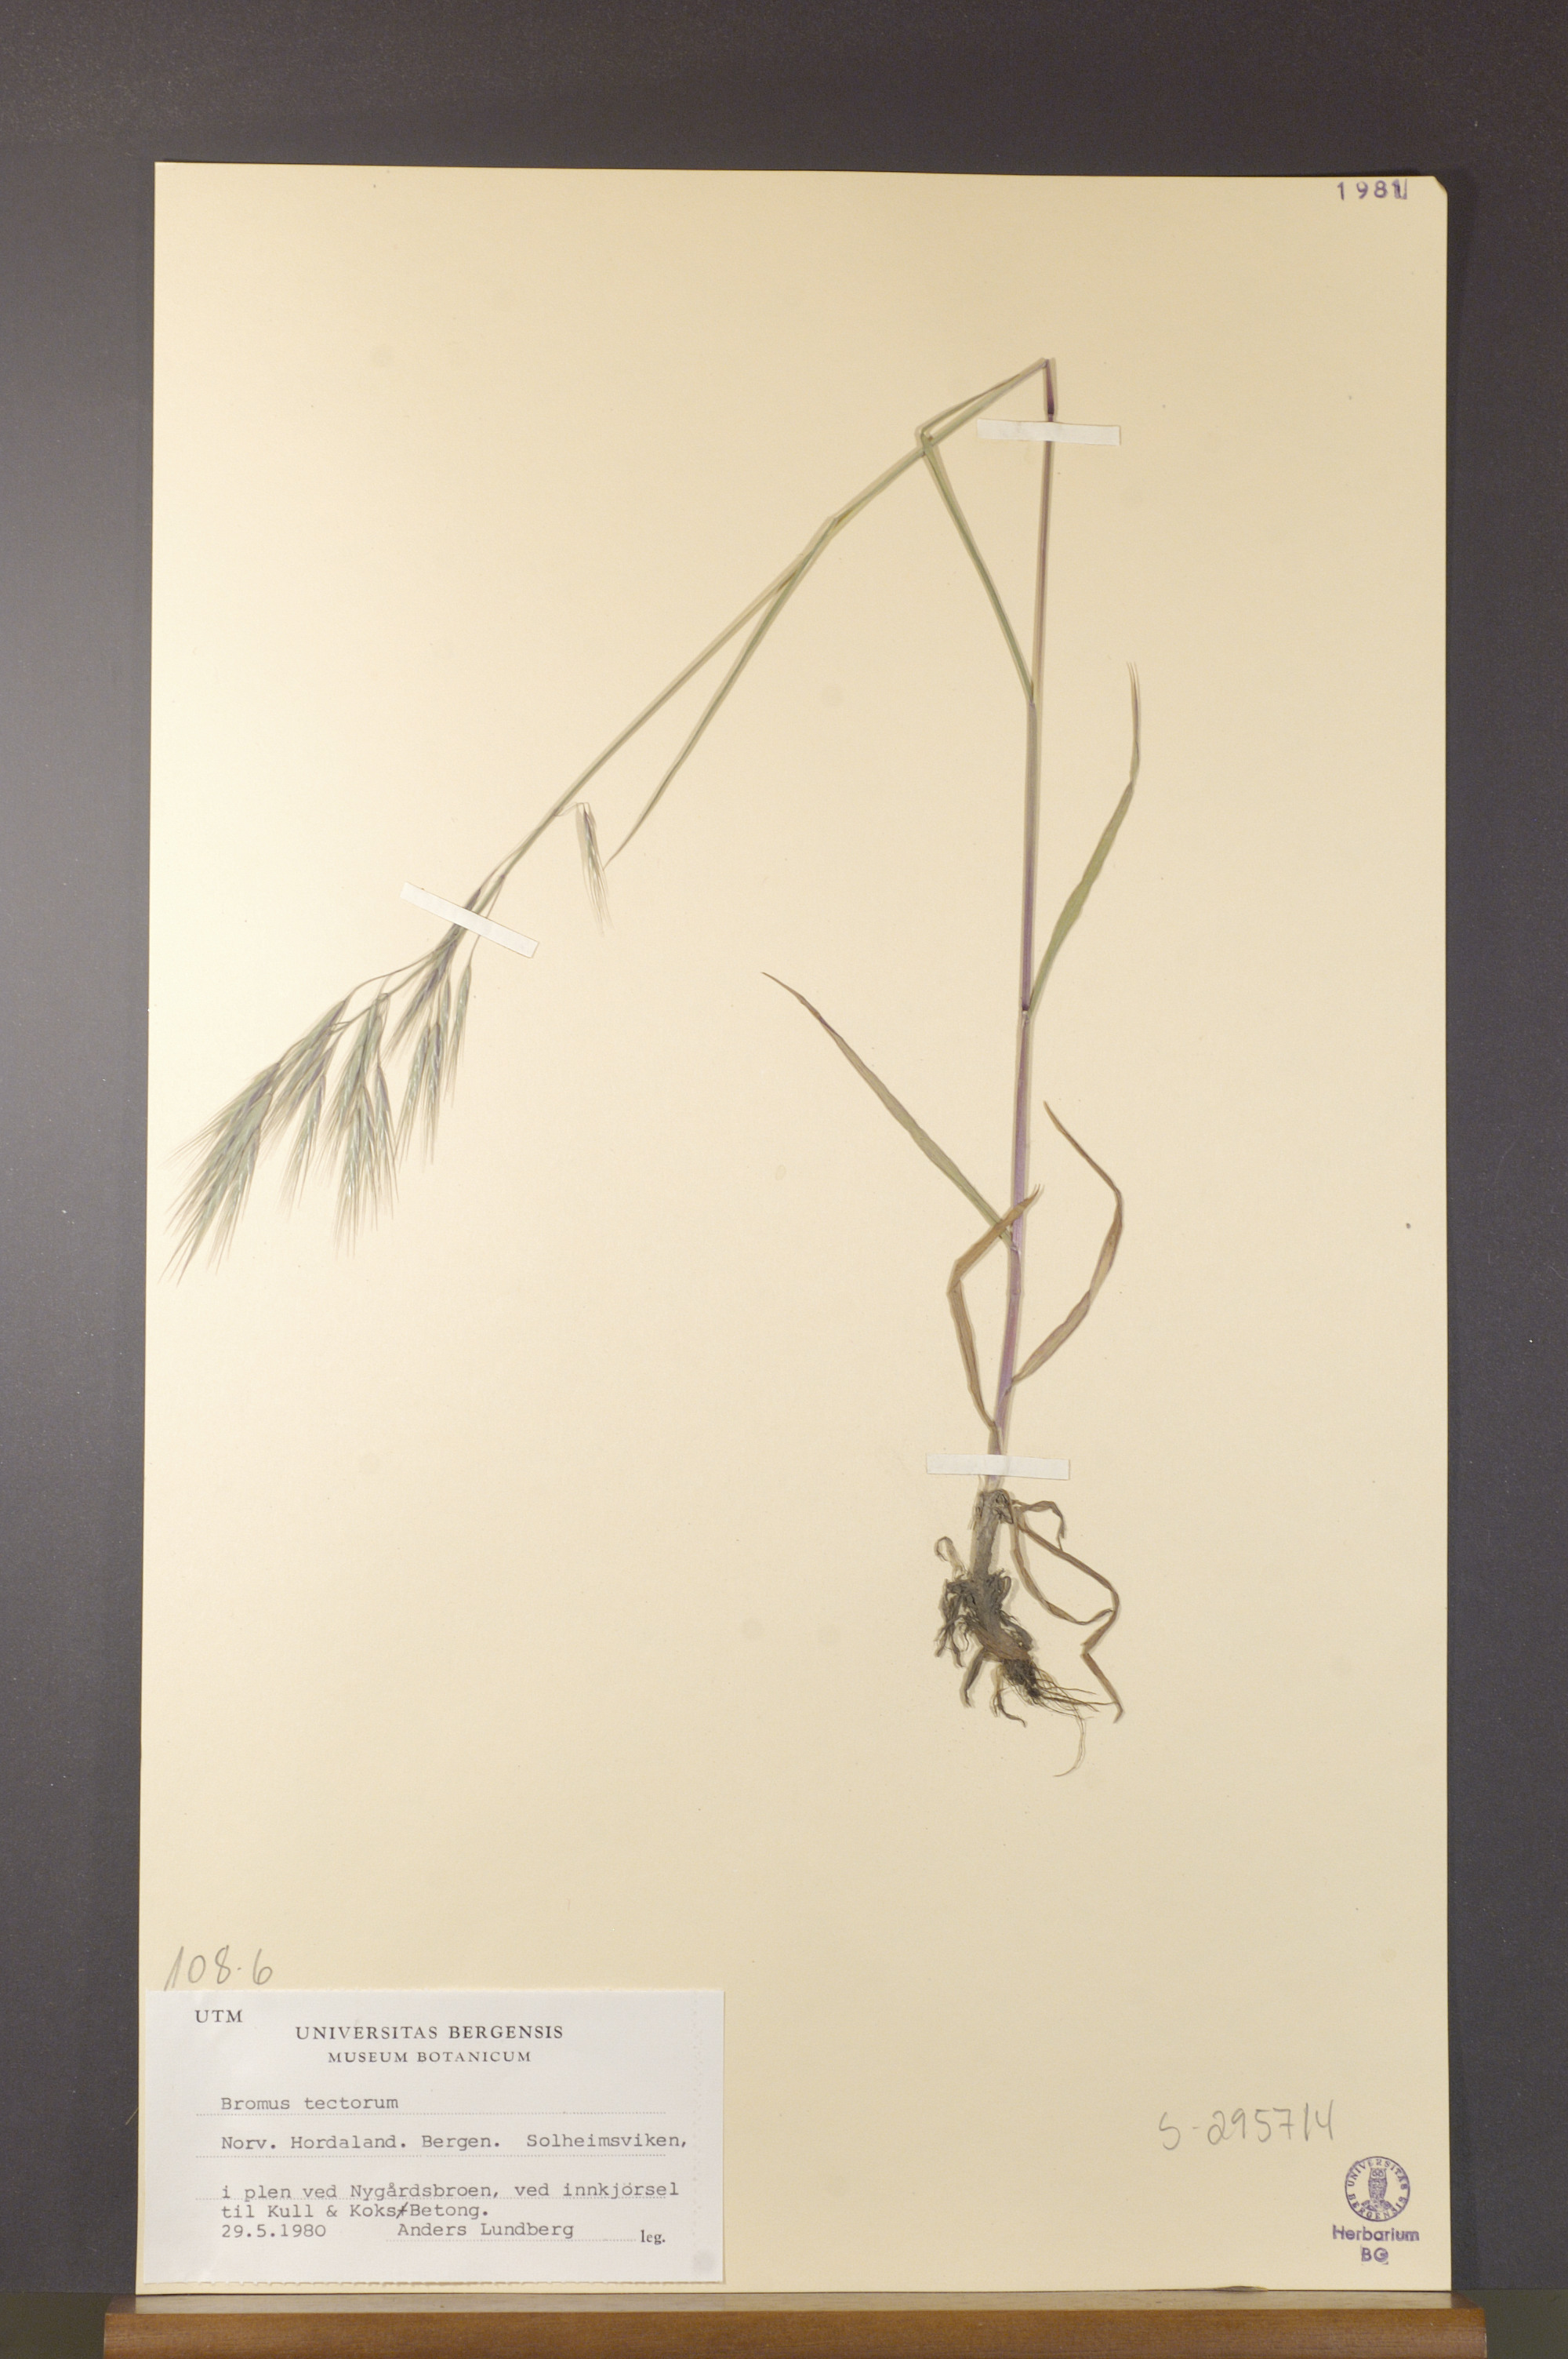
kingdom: Plantae
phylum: Tracheophyta
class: Liliopsida
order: Poales
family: Poaceae
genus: Bromus
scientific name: Bromus tectorum
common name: Cheatgrass
